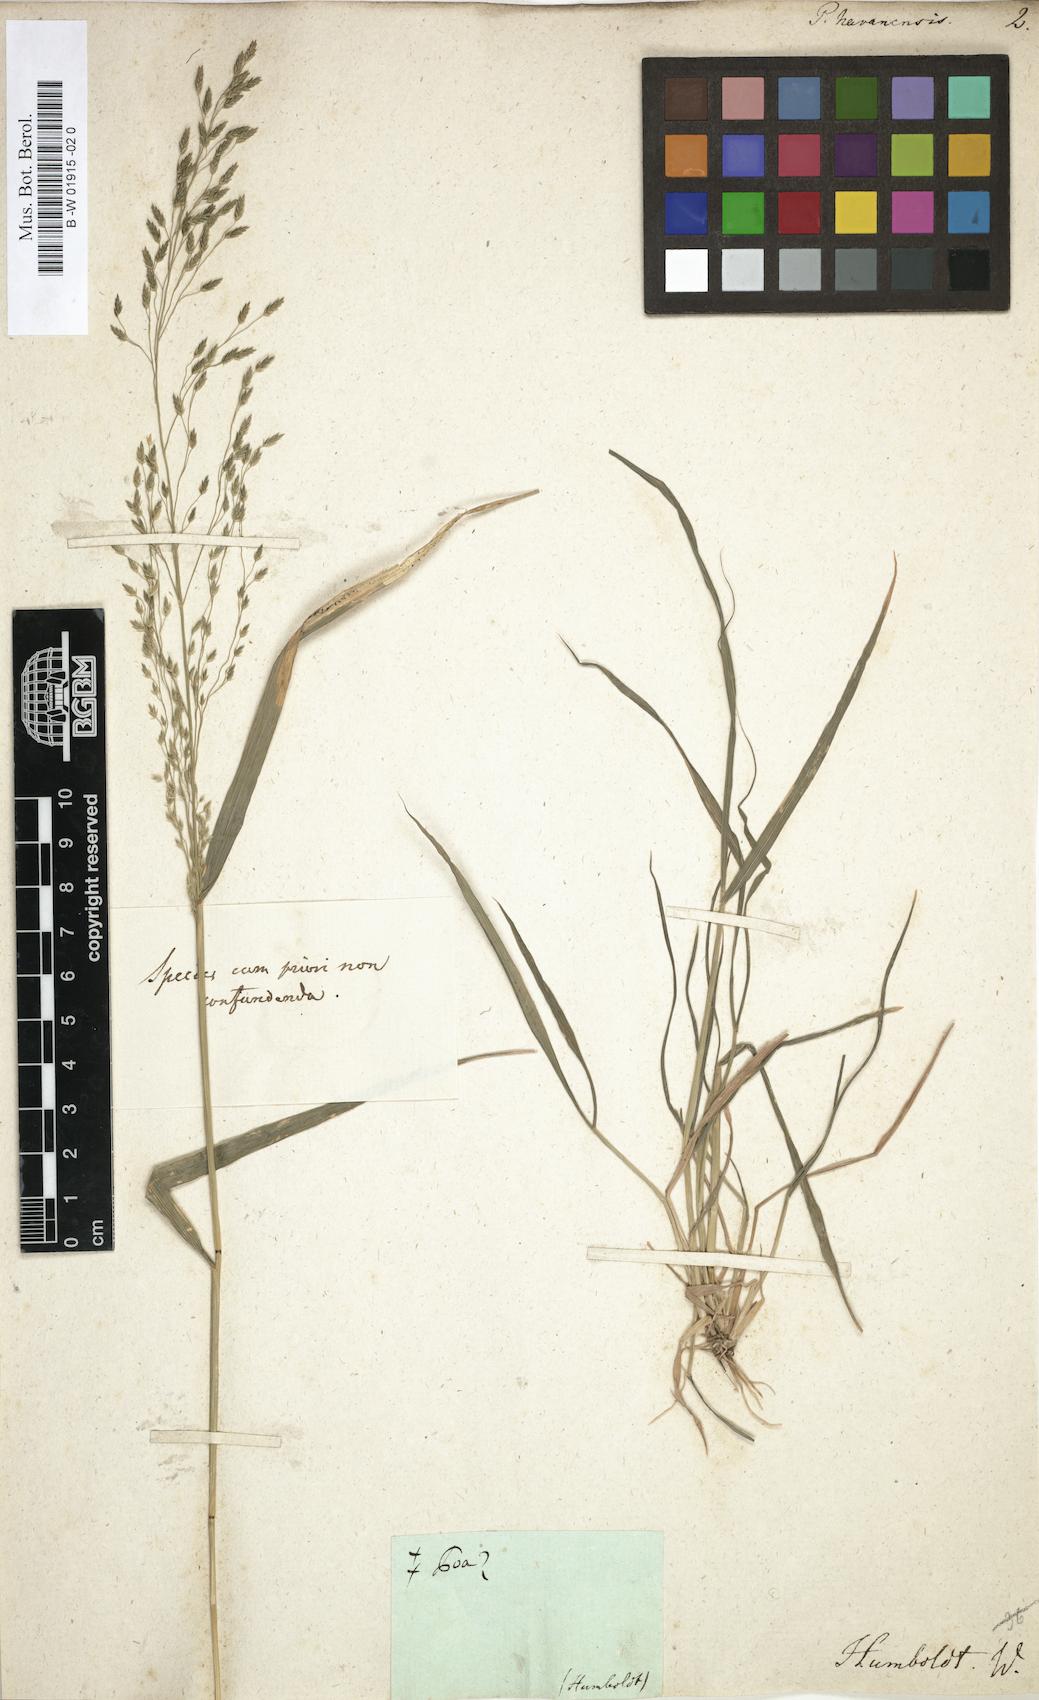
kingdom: Plantae
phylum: Tracheophyta
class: Liliopsida
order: Poales
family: Poaceae
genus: Eragrostis
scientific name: Eragrostis tephrosanthos
